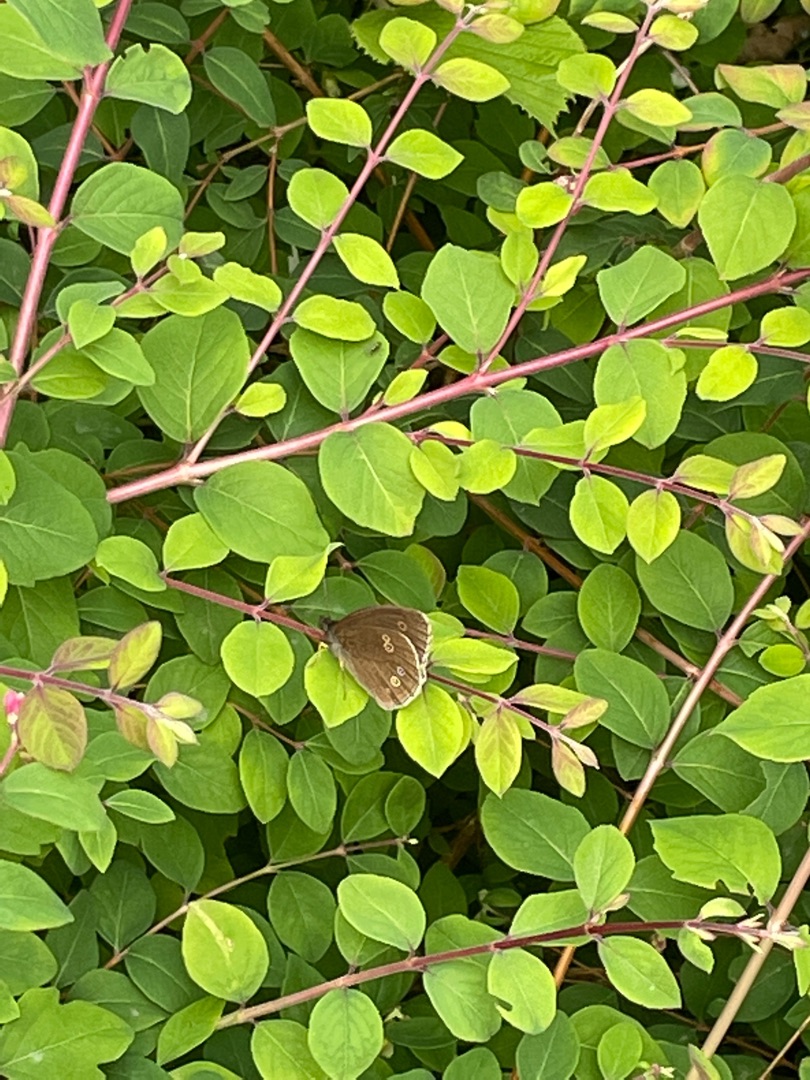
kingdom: Animalia
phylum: Arthropoda
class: Insecta
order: Lepidoptera
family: Nymphalidae
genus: Aphantopus
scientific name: Aphantopus hyperantus
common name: Engrandøje
